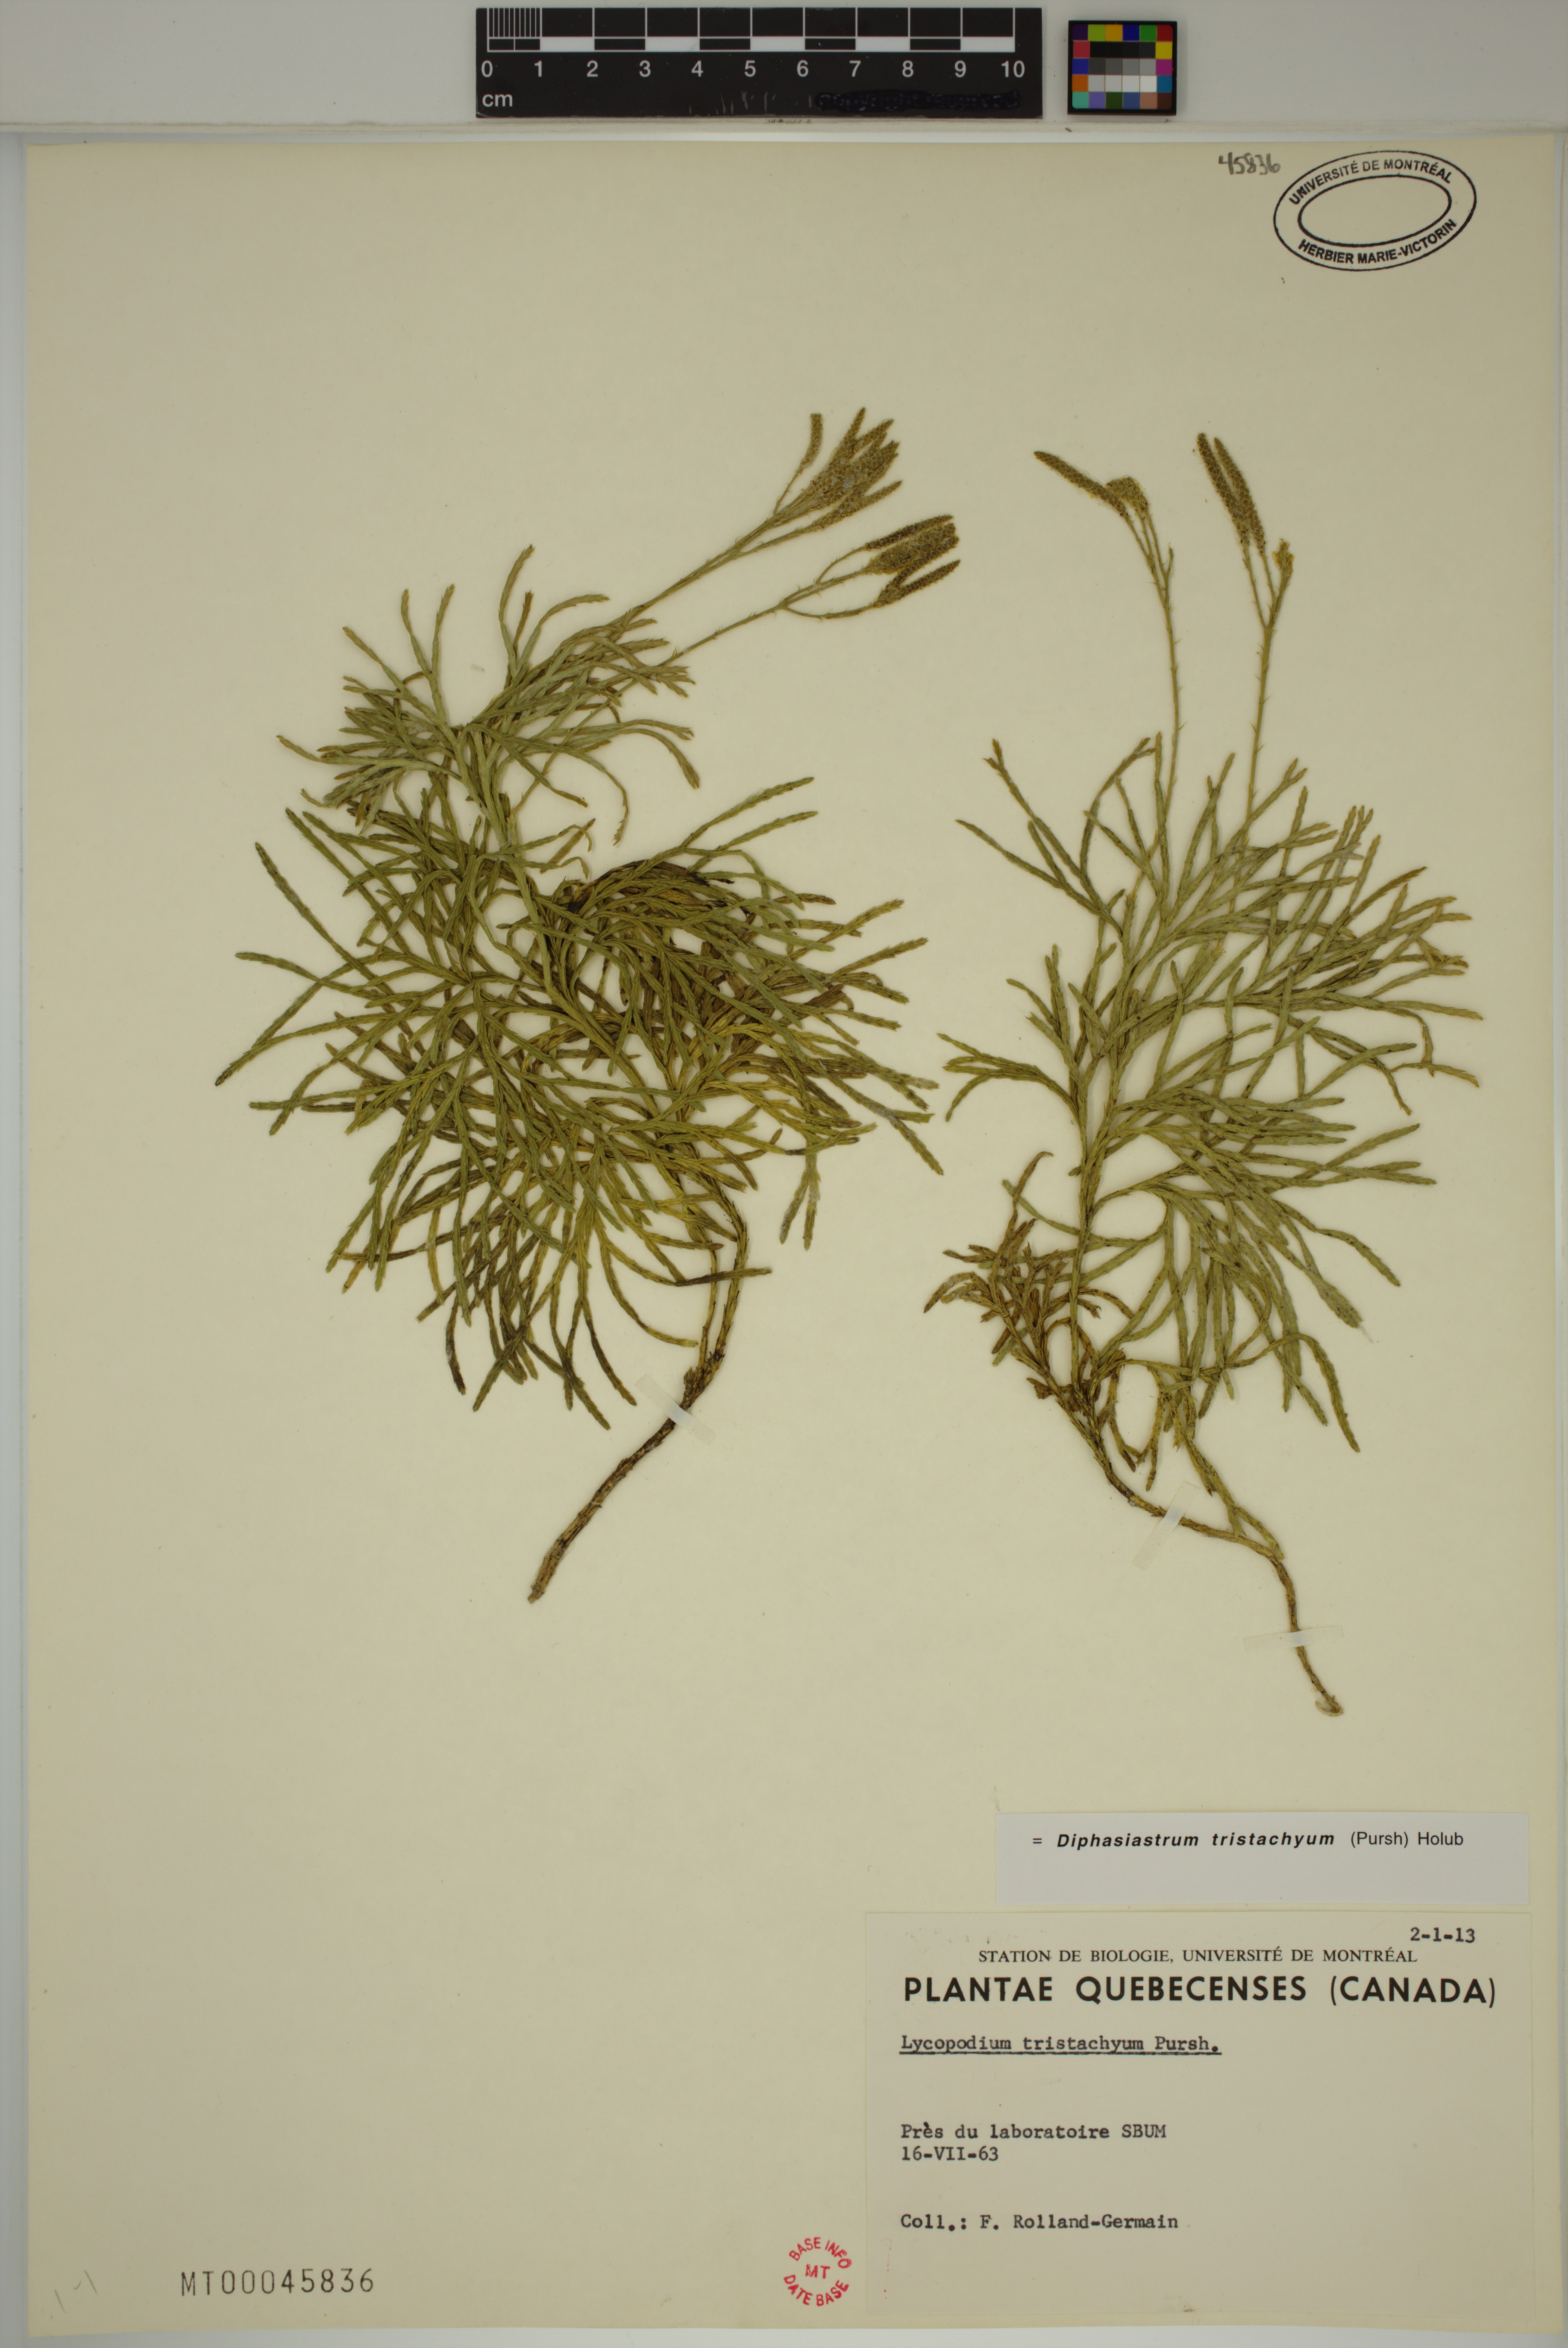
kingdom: Plantae
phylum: Tracheophyta
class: Lycopodiopsida
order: Lycopodiales
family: Lycopodiaceae
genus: Diphasiastrum
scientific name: Diphasiastrum tristachyum
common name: Blue ground-cedar
